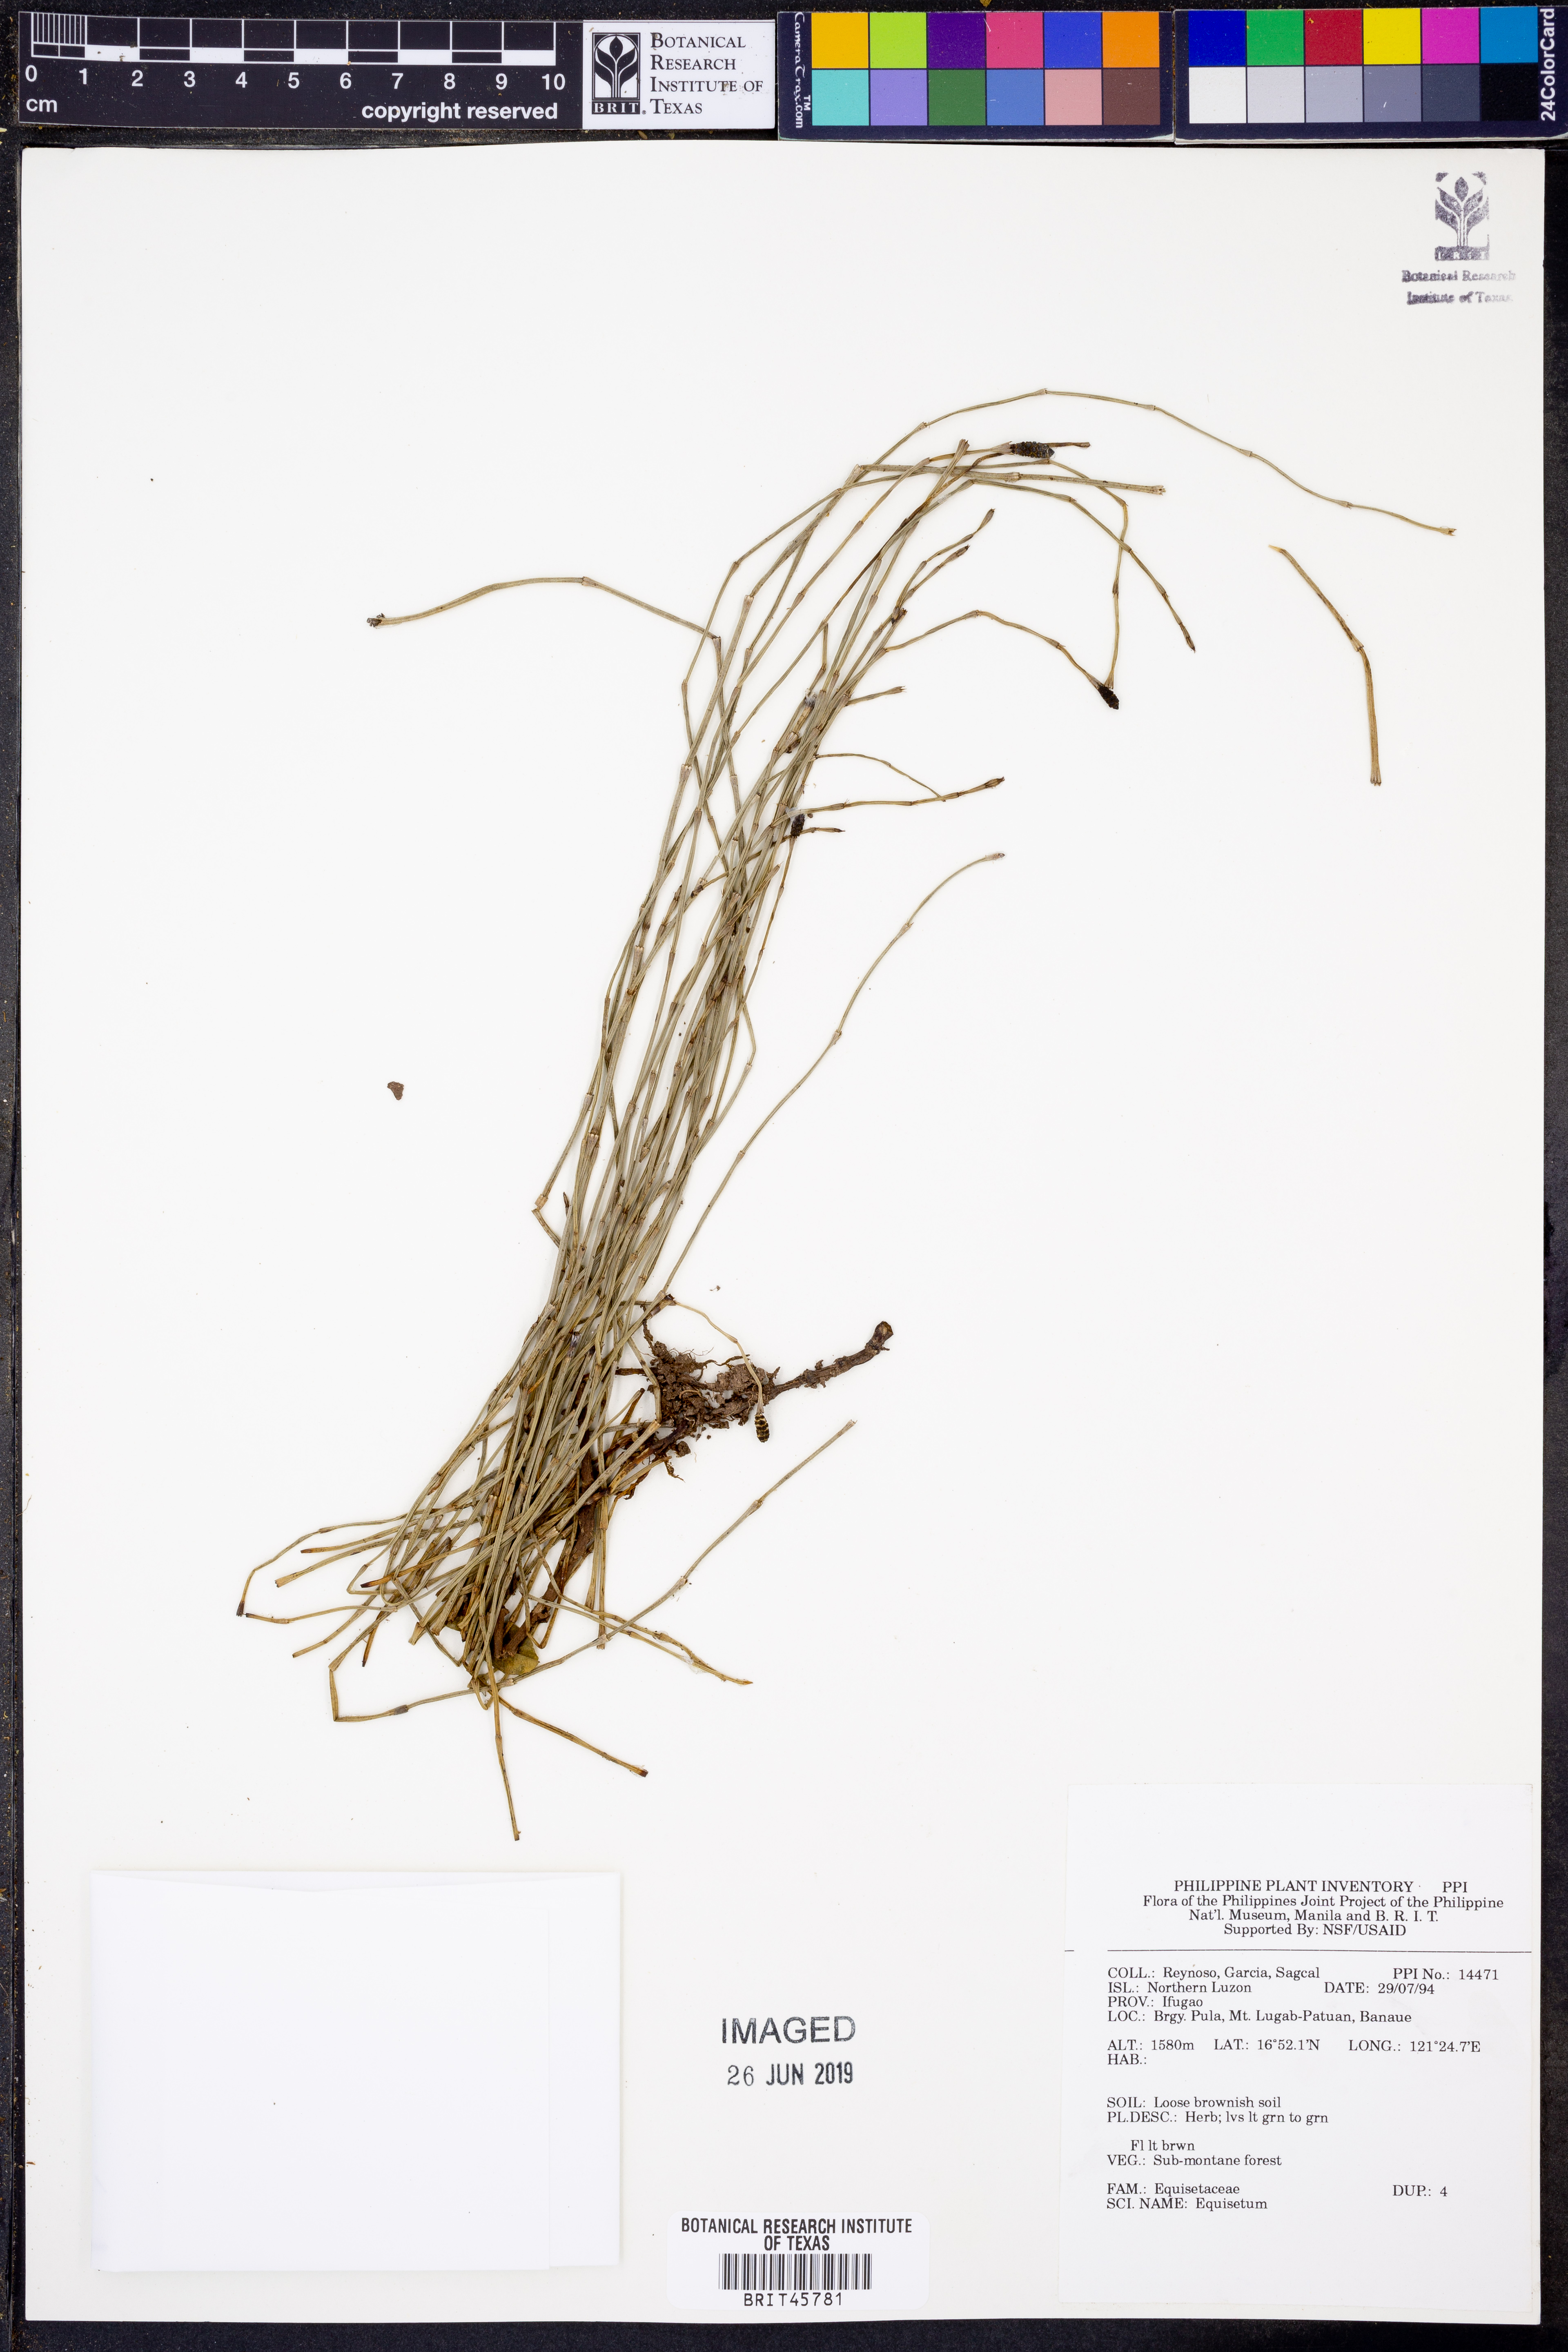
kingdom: Plantae
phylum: Tracheophyta
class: Polypodiopsida
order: Equisetales
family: Equisetaceae
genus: Equisetum
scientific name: Equisetum
